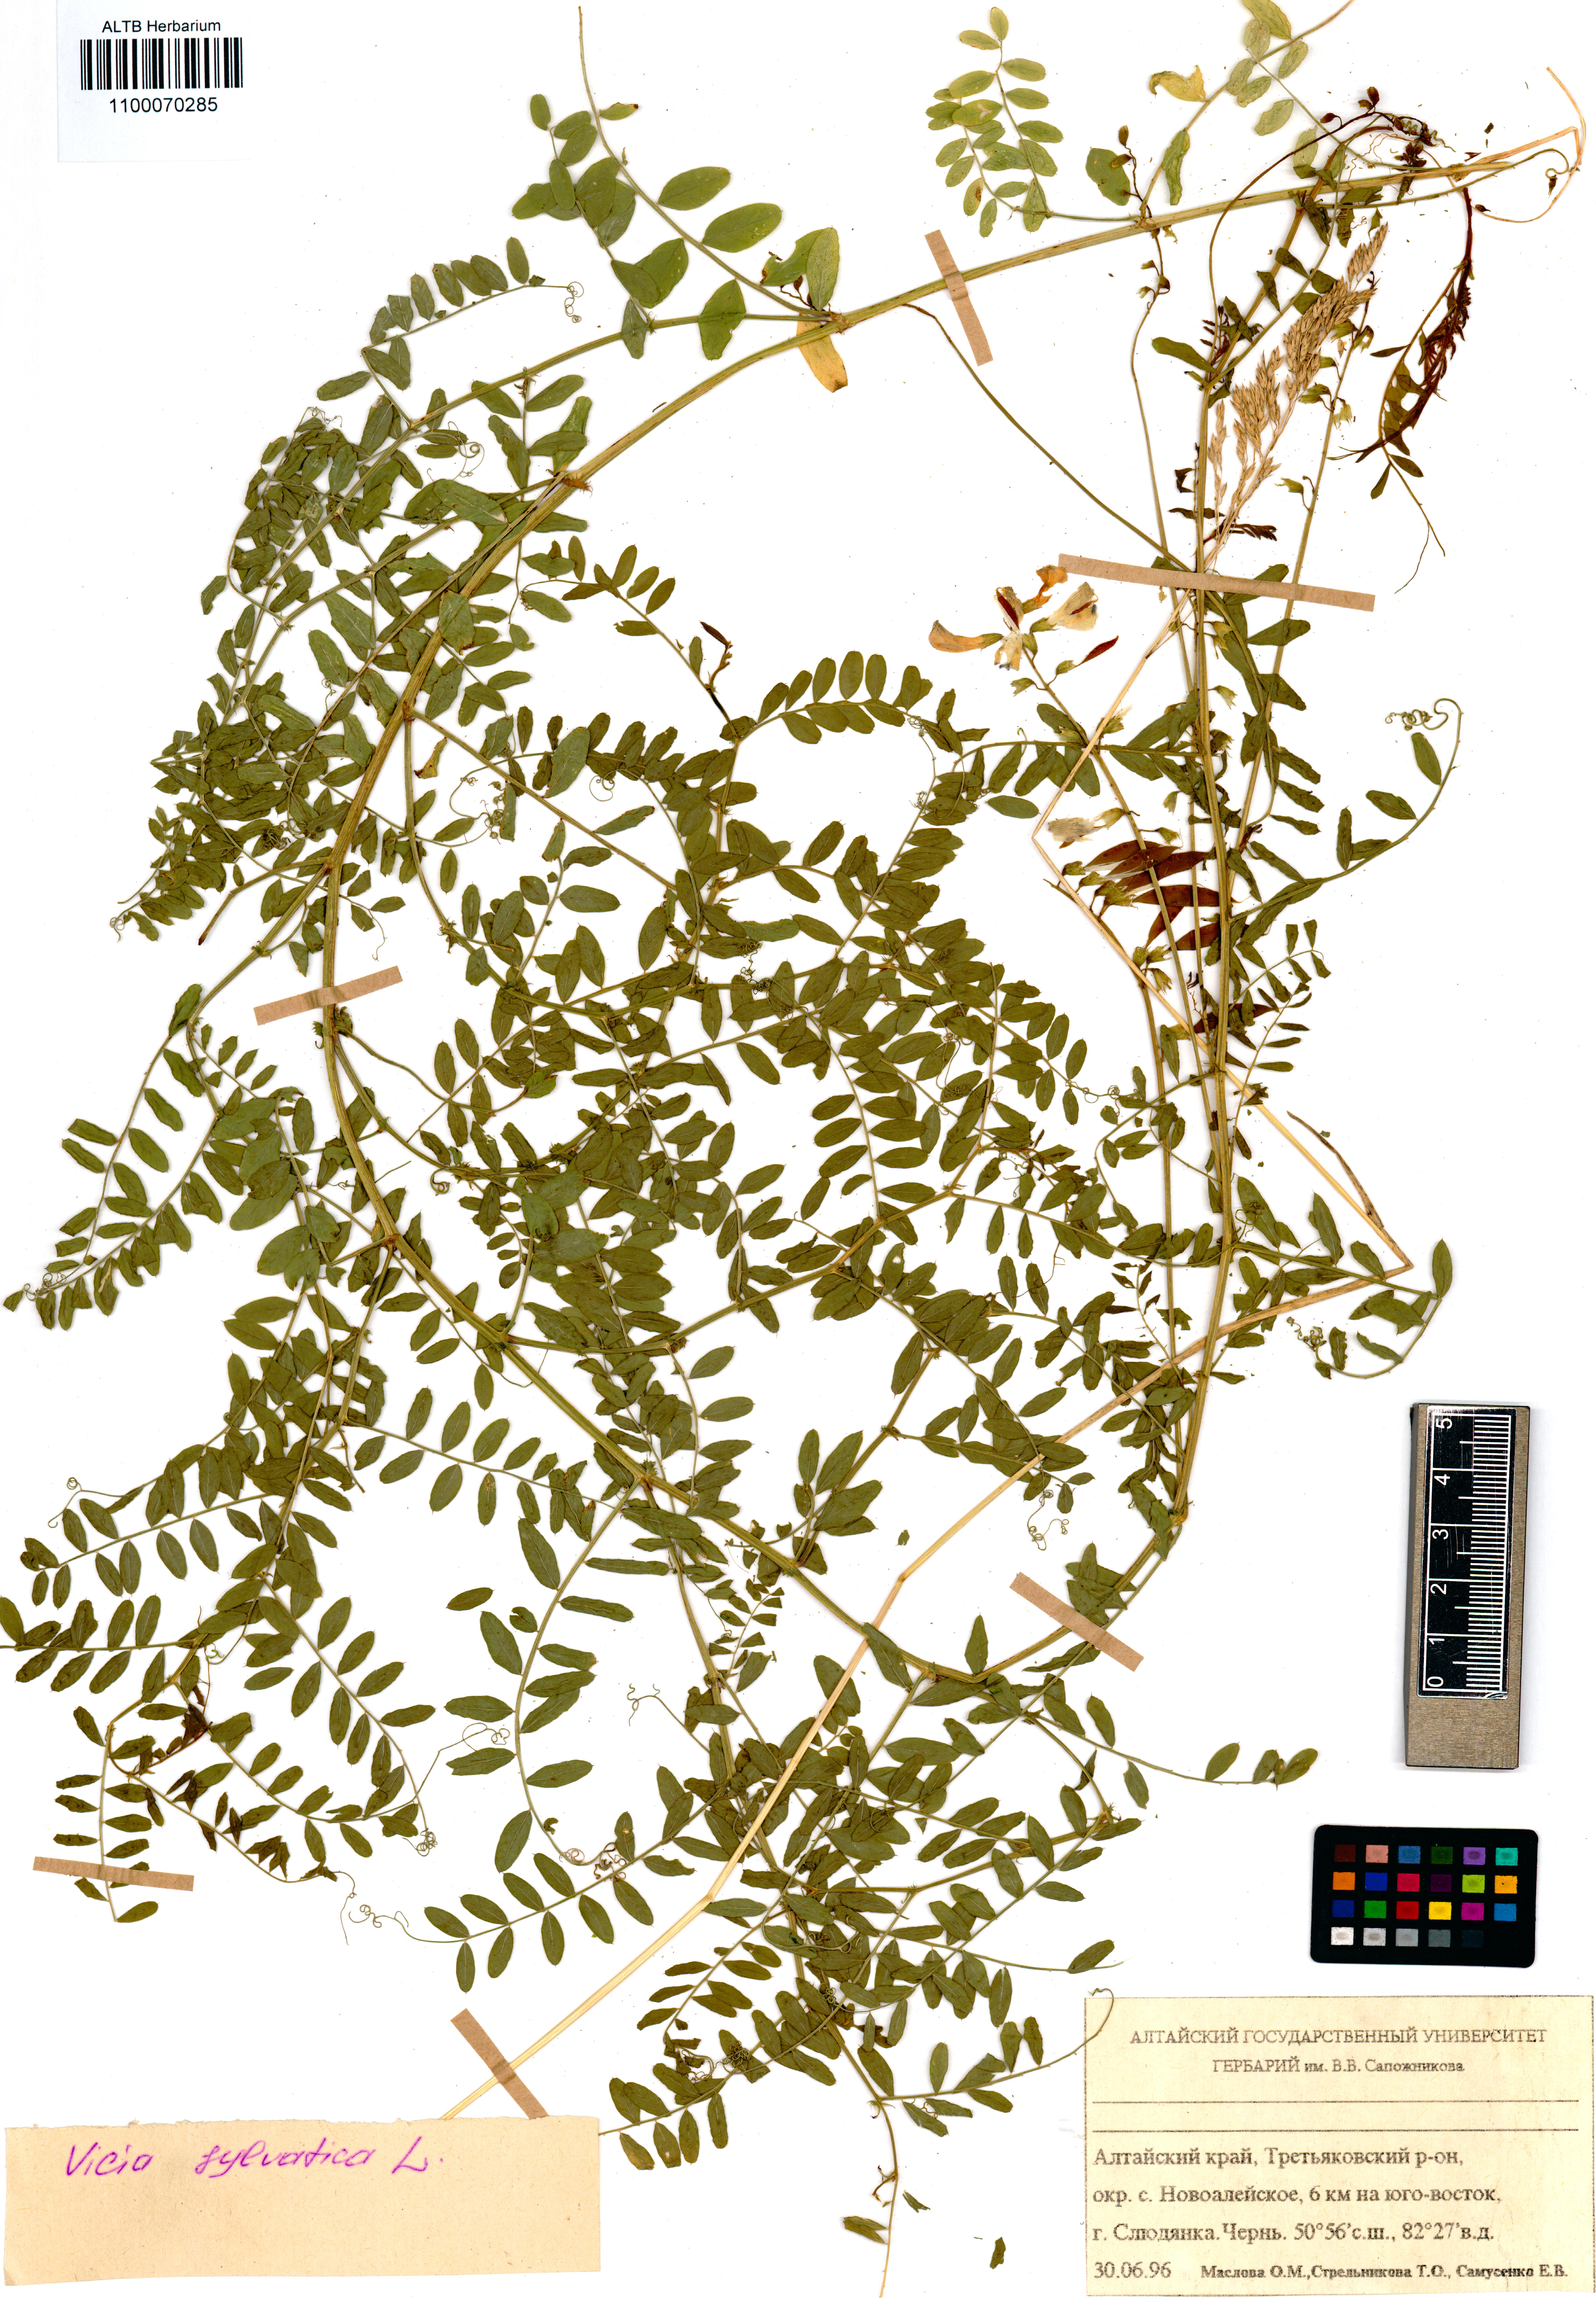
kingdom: Plantae
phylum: Tracheophyta
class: Magnoliopsida
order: Fabales
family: Fabaceae
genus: Vicia
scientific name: Vicia bakeri
